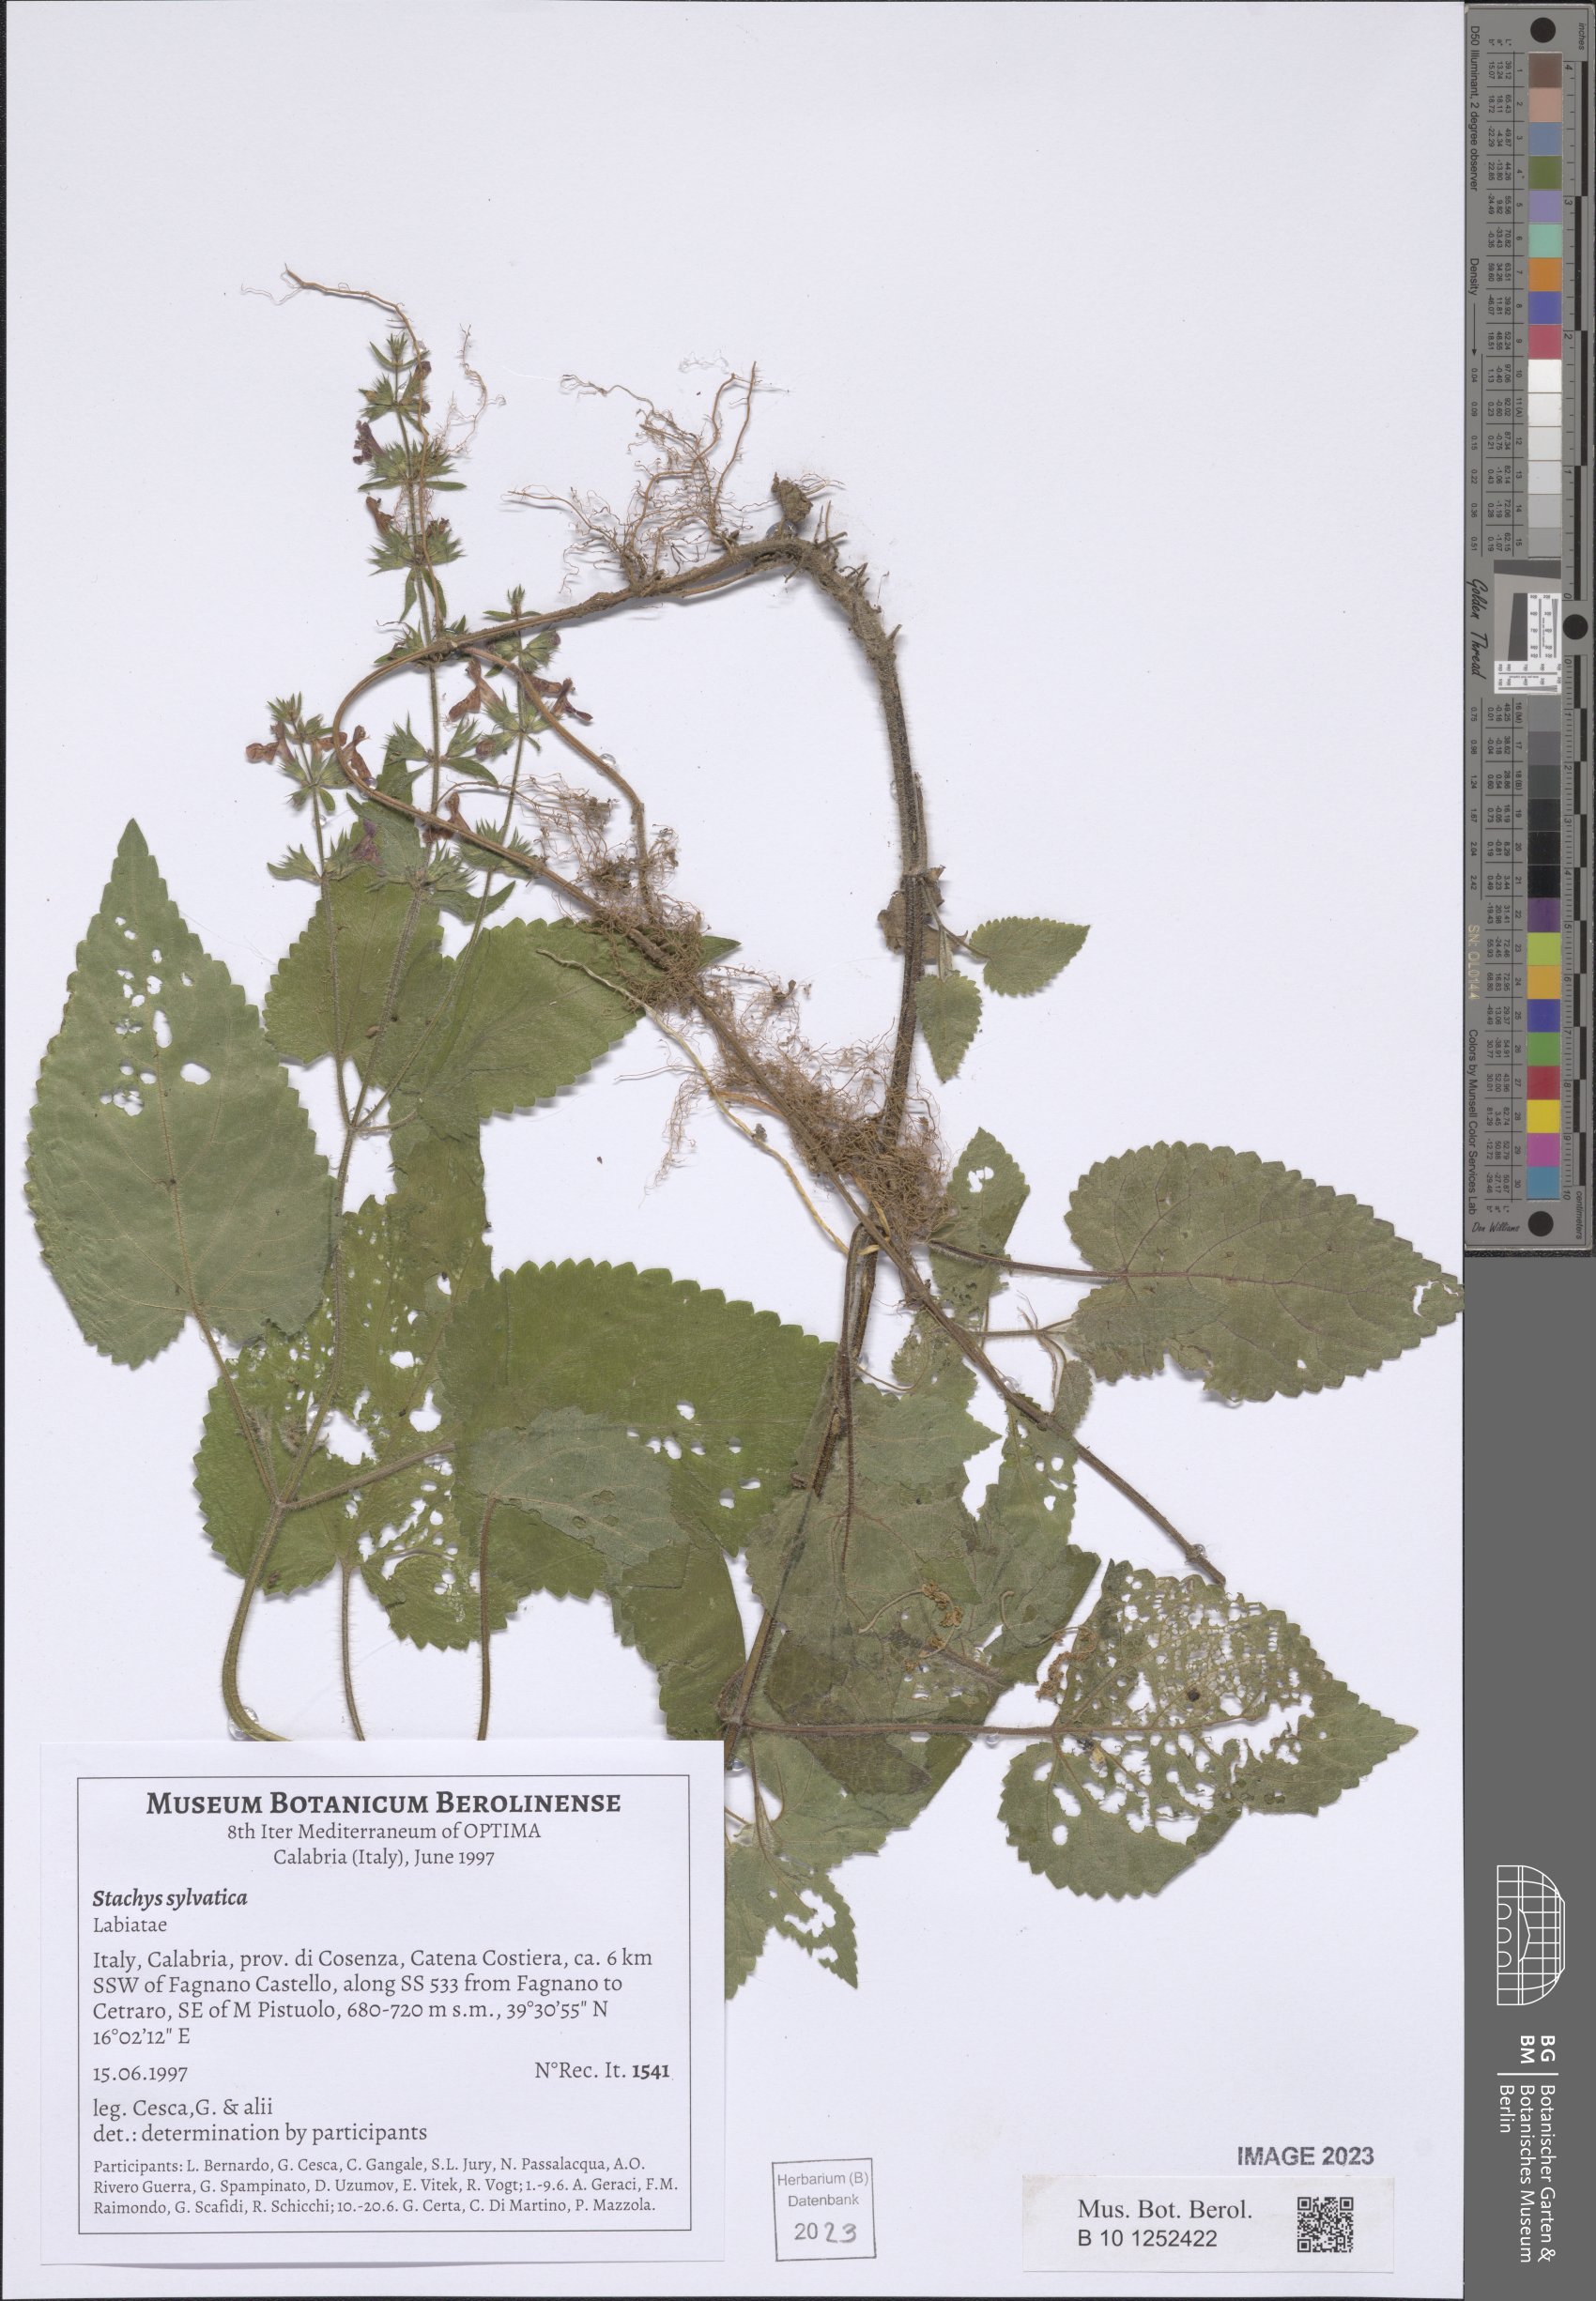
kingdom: Plantae
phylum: Tracheophyta
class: Magnoliopsida
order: Lamiales
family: Lamiaceae
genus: Stachys
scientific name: Stachys sylvatica
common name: Hedge woundwort
